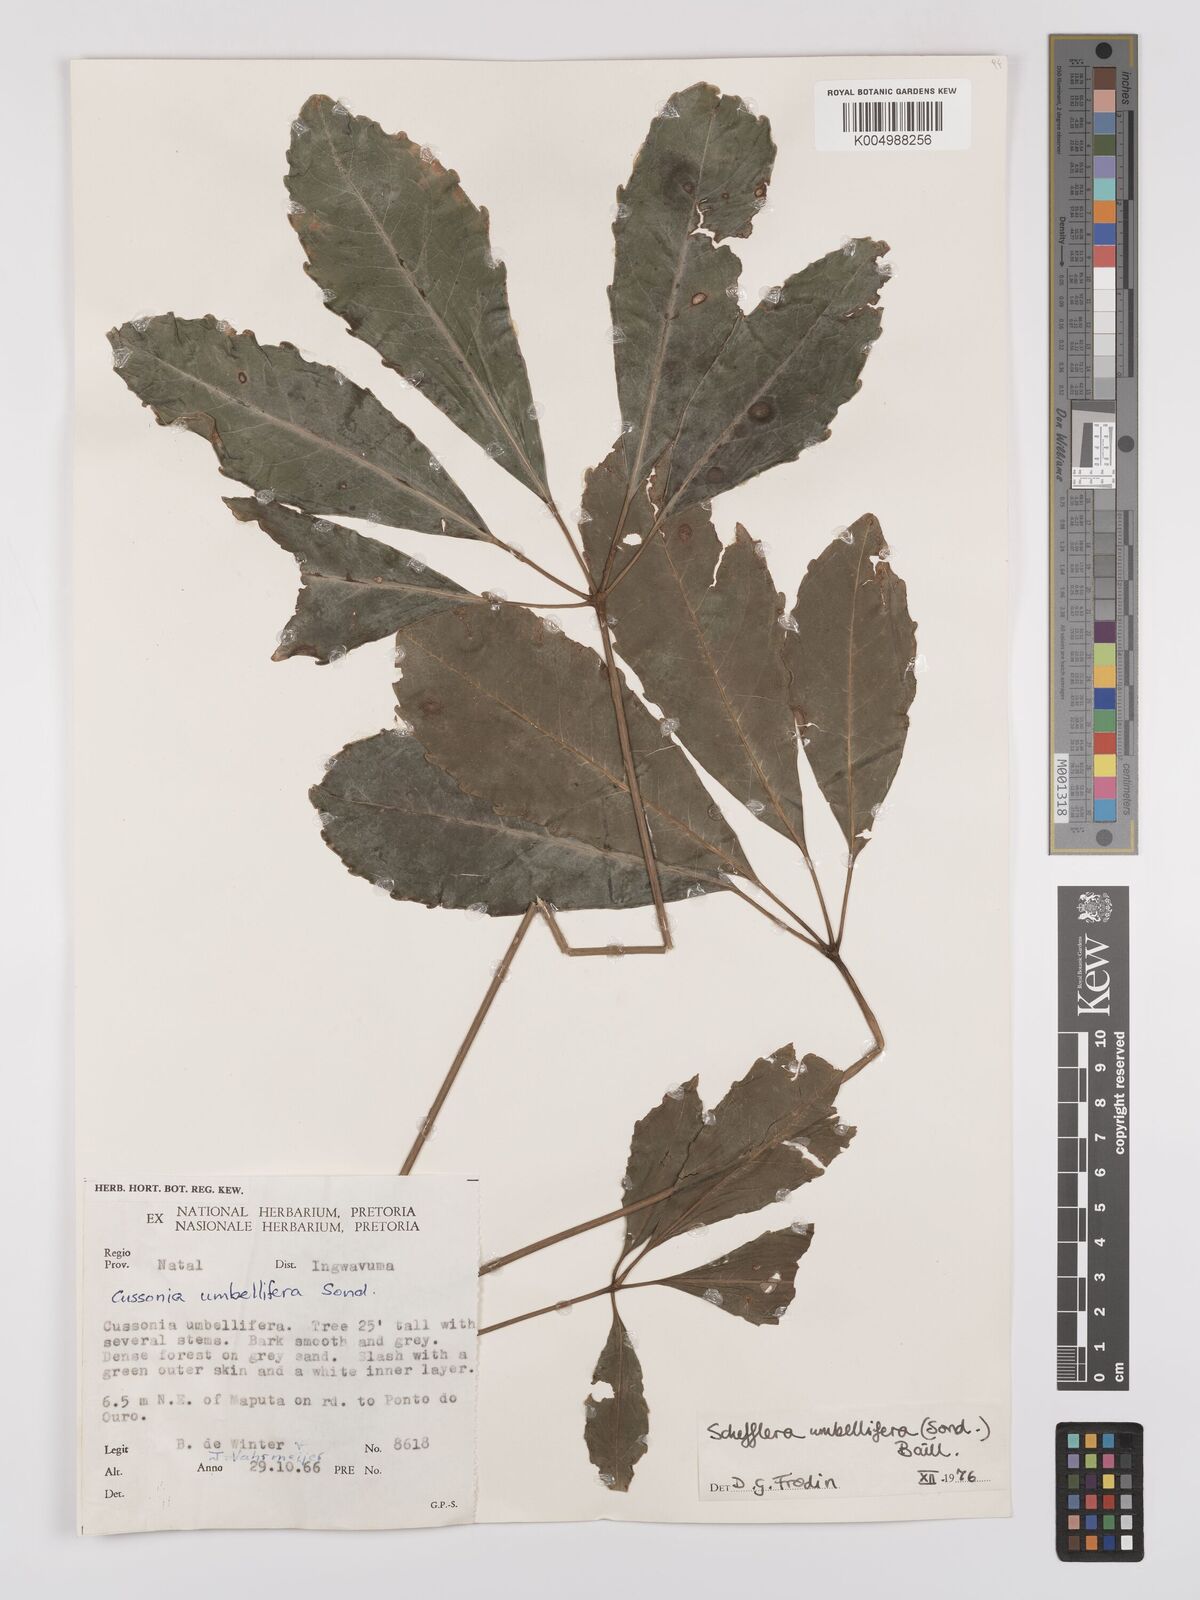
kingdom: Plantae
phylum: Tracheophyta
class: Magnoliopsida
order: Apiales
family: Araliaceae
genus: Neocussonia
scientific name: Neocussonia umbellifera
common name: False cabbage tree
